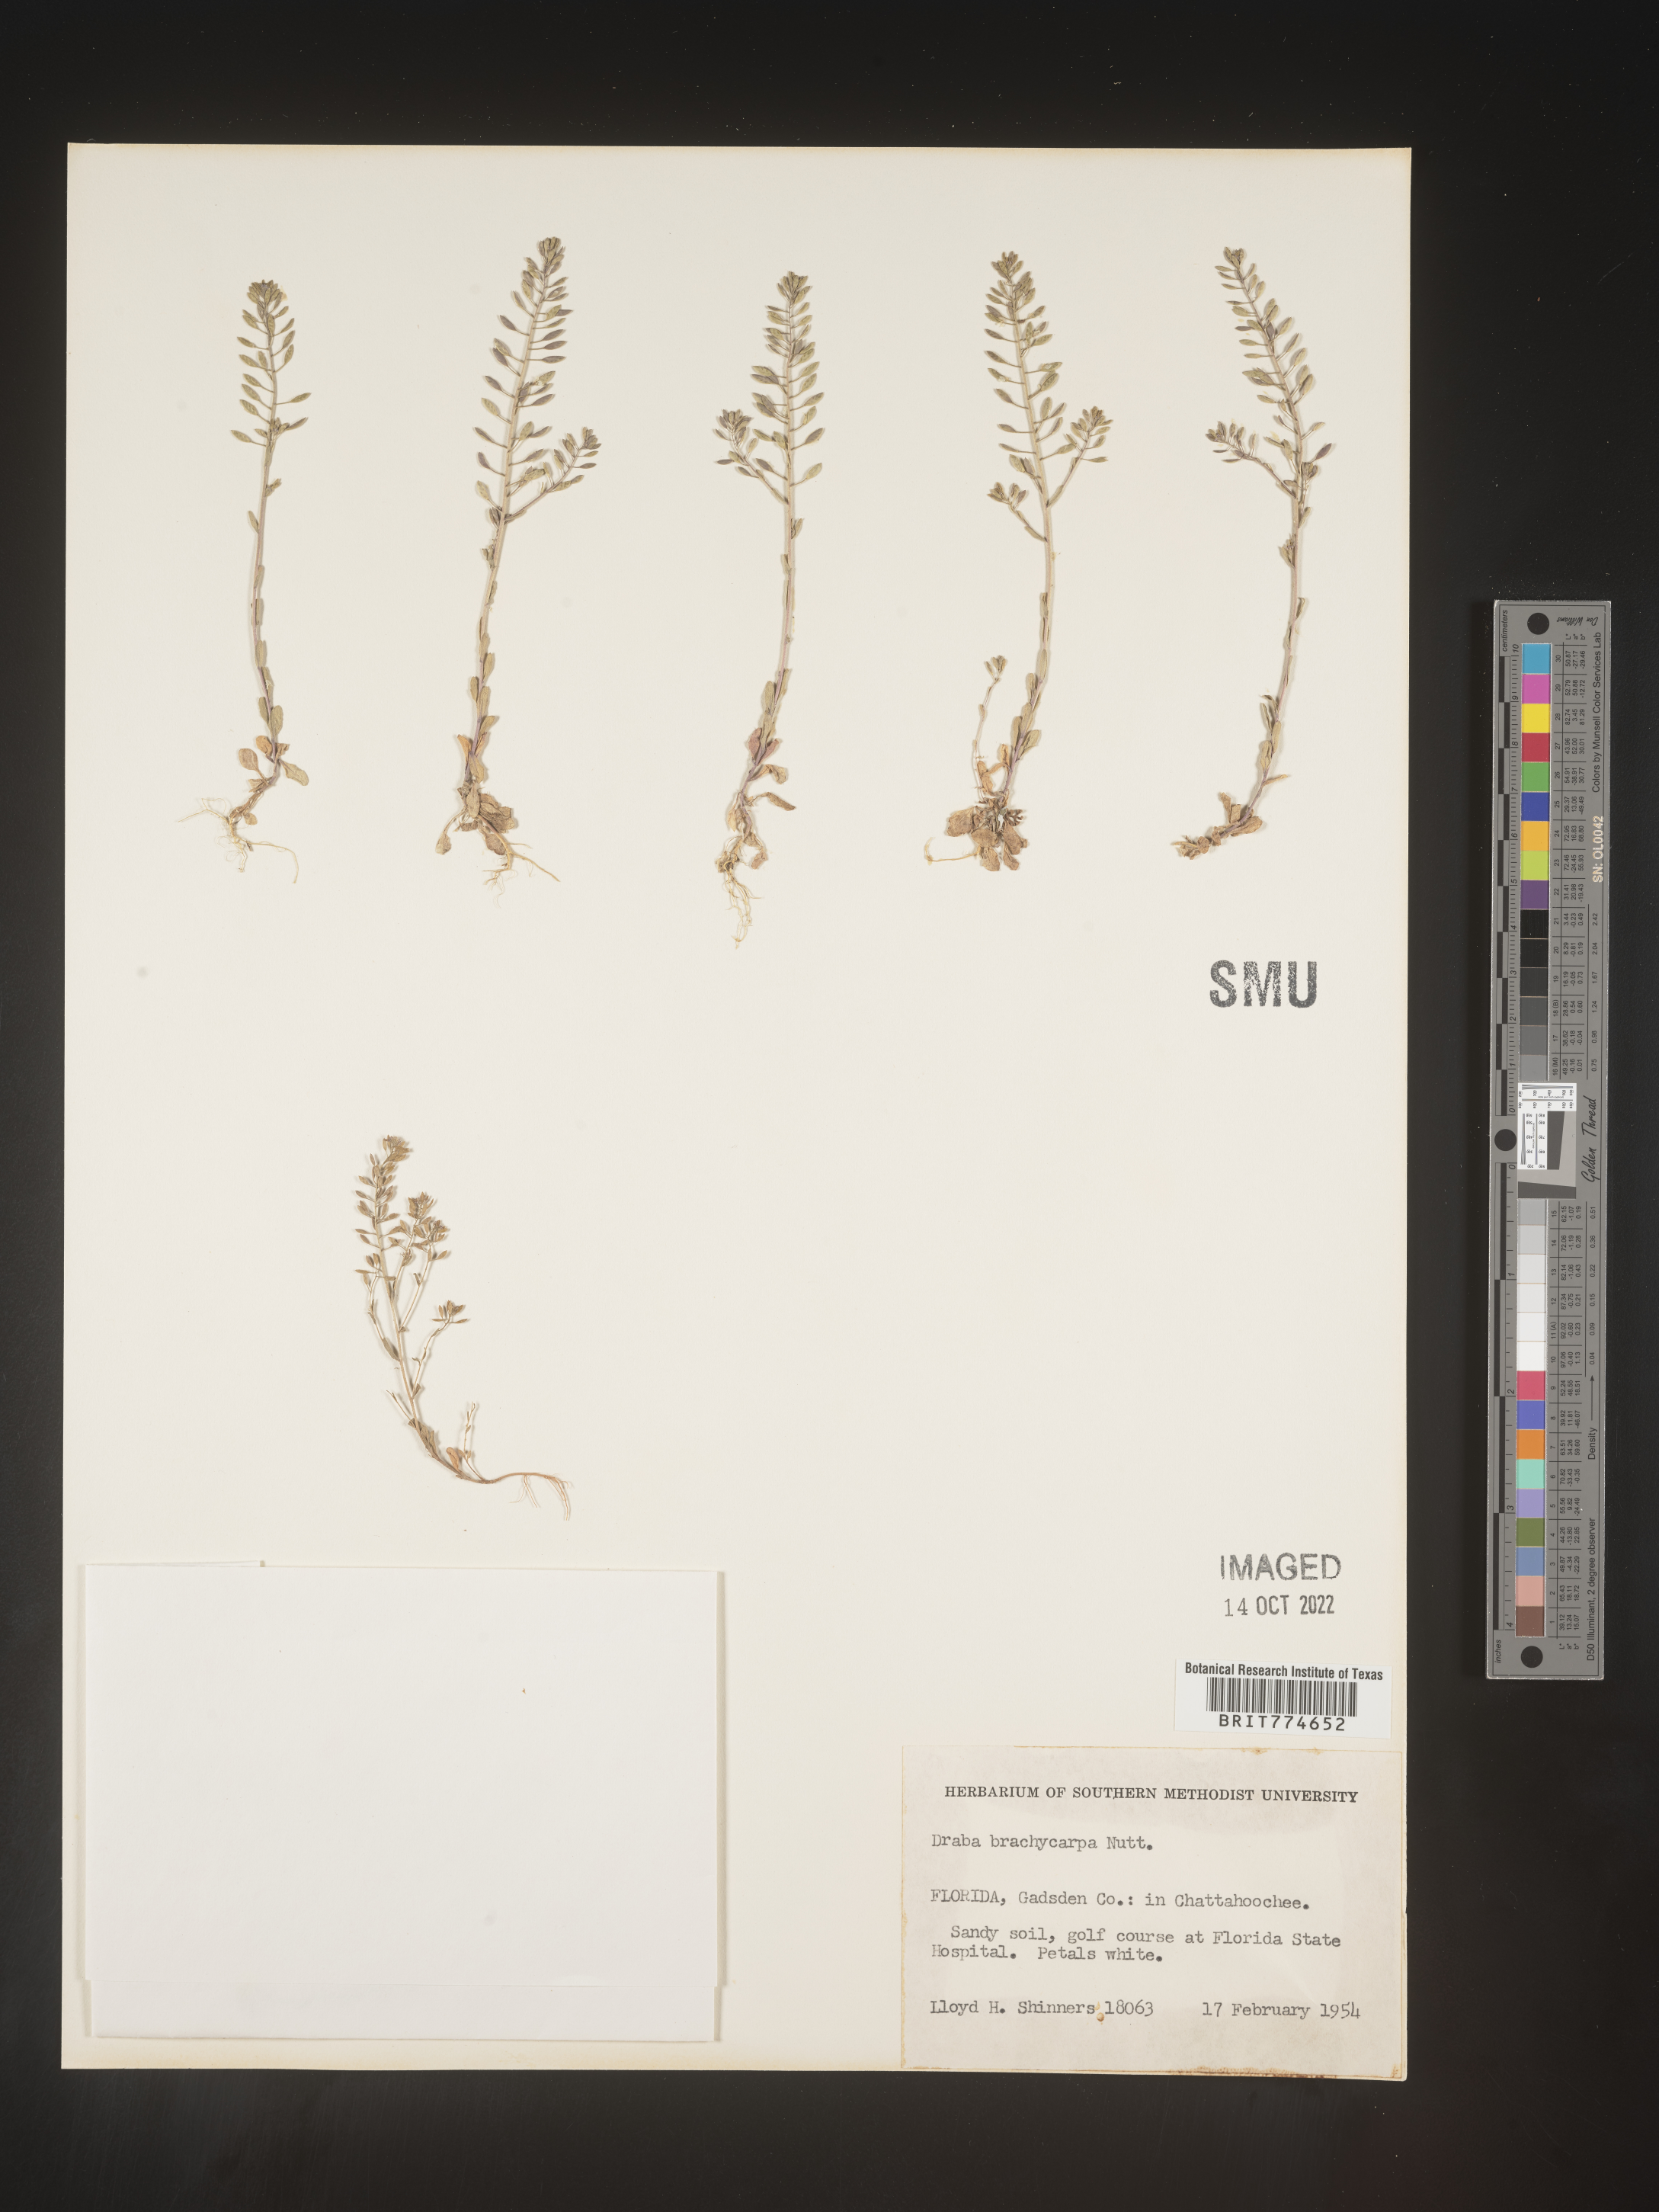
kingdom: Plantae
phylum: Tracheophyta
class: Magnoliopsida
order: Brassicales
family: Brassicaceae
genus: Abdra
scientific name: Abdra brachycarpa
